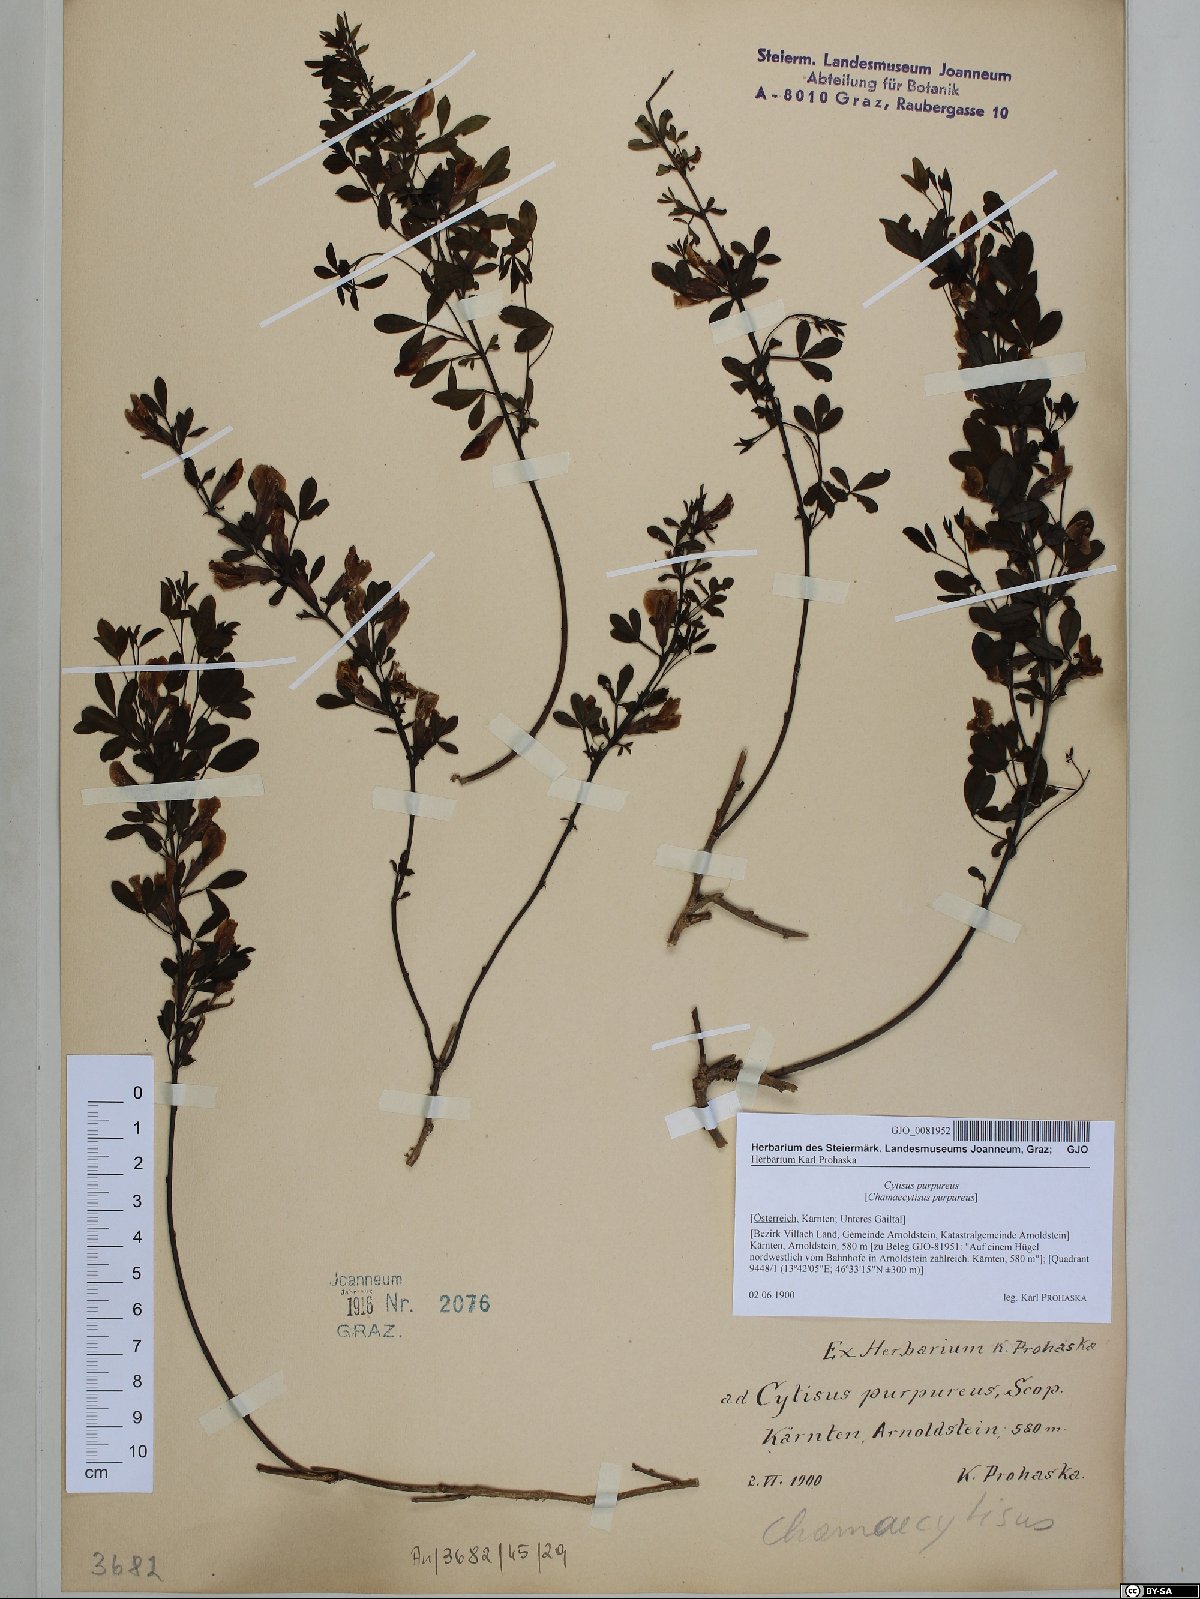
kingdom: Plantae
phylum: Tracheophyta
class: Magnoliopsida
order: Fabales
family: Fabaceae
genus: Chamaecytisus
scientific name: Chamaecytisus purpureus
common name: Purple broom
